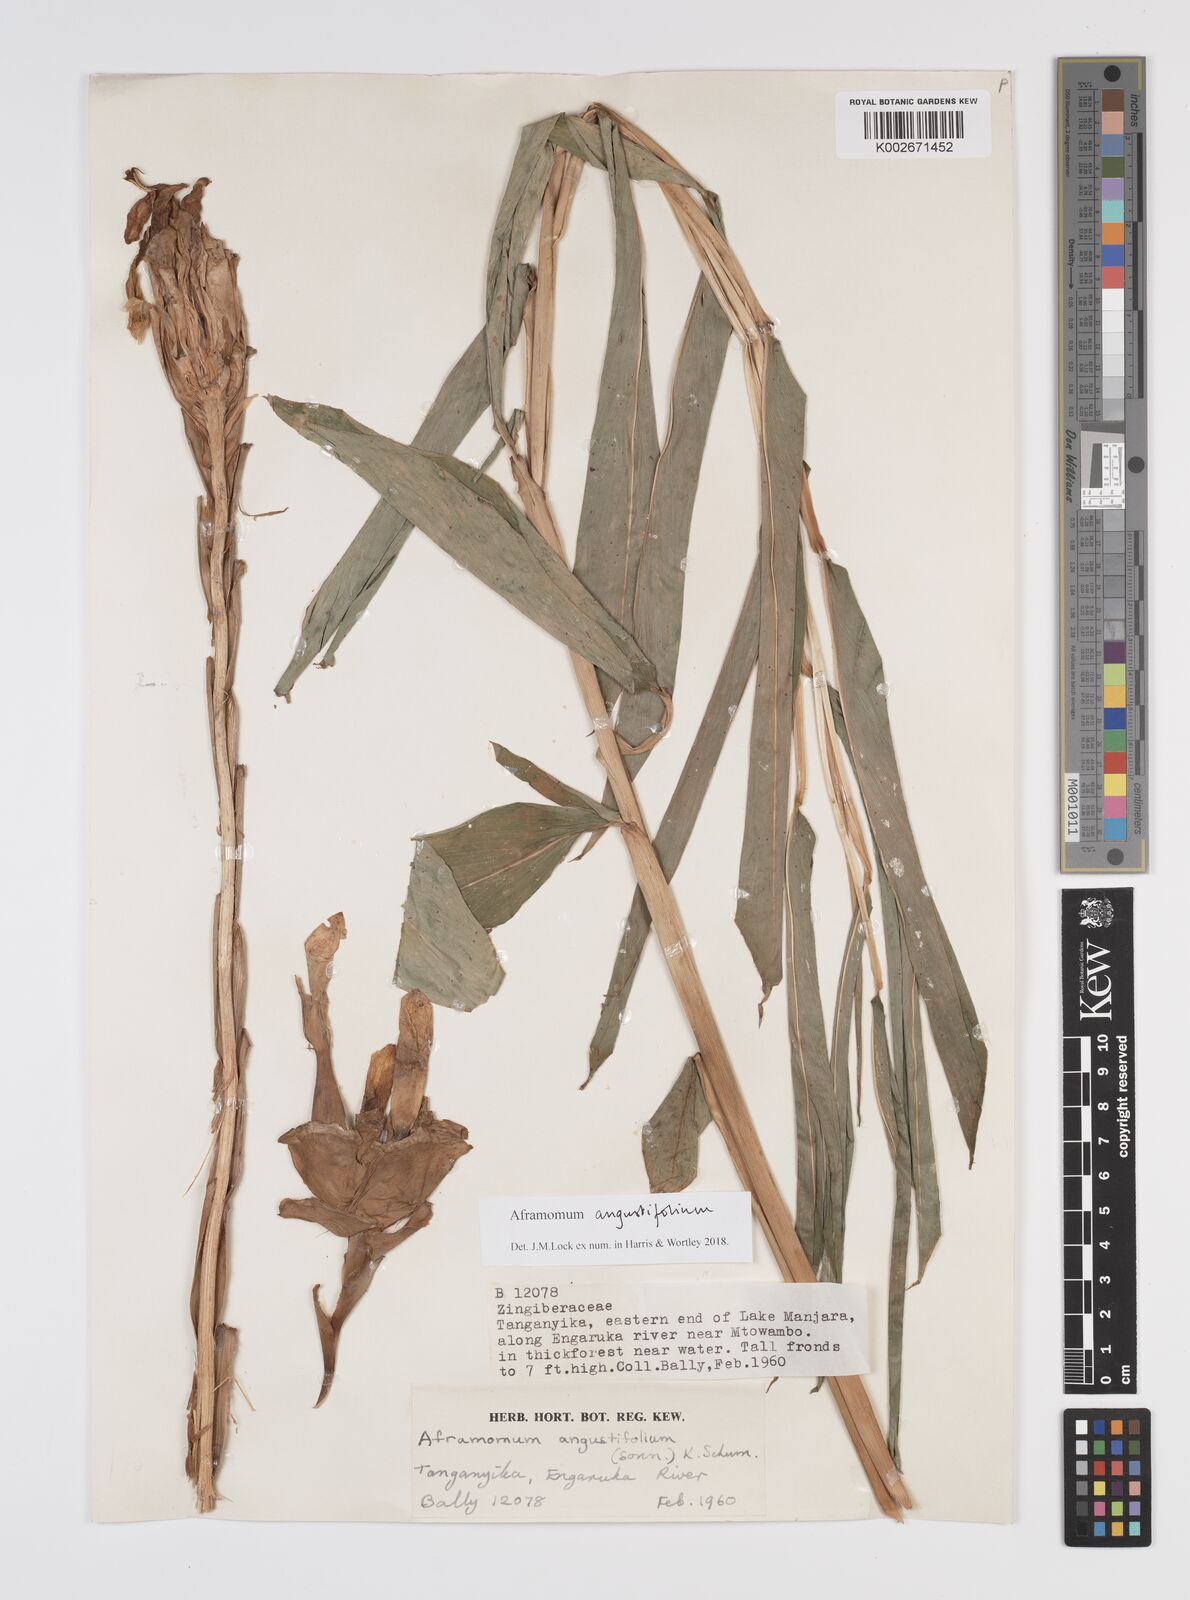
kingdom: Plantae
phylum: Tracheophyta
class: Liliopsida
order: Zingiberales
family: Zingiberaceae
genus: Aframomum
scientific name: Aframomum angustifolium
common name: Guinea grains
